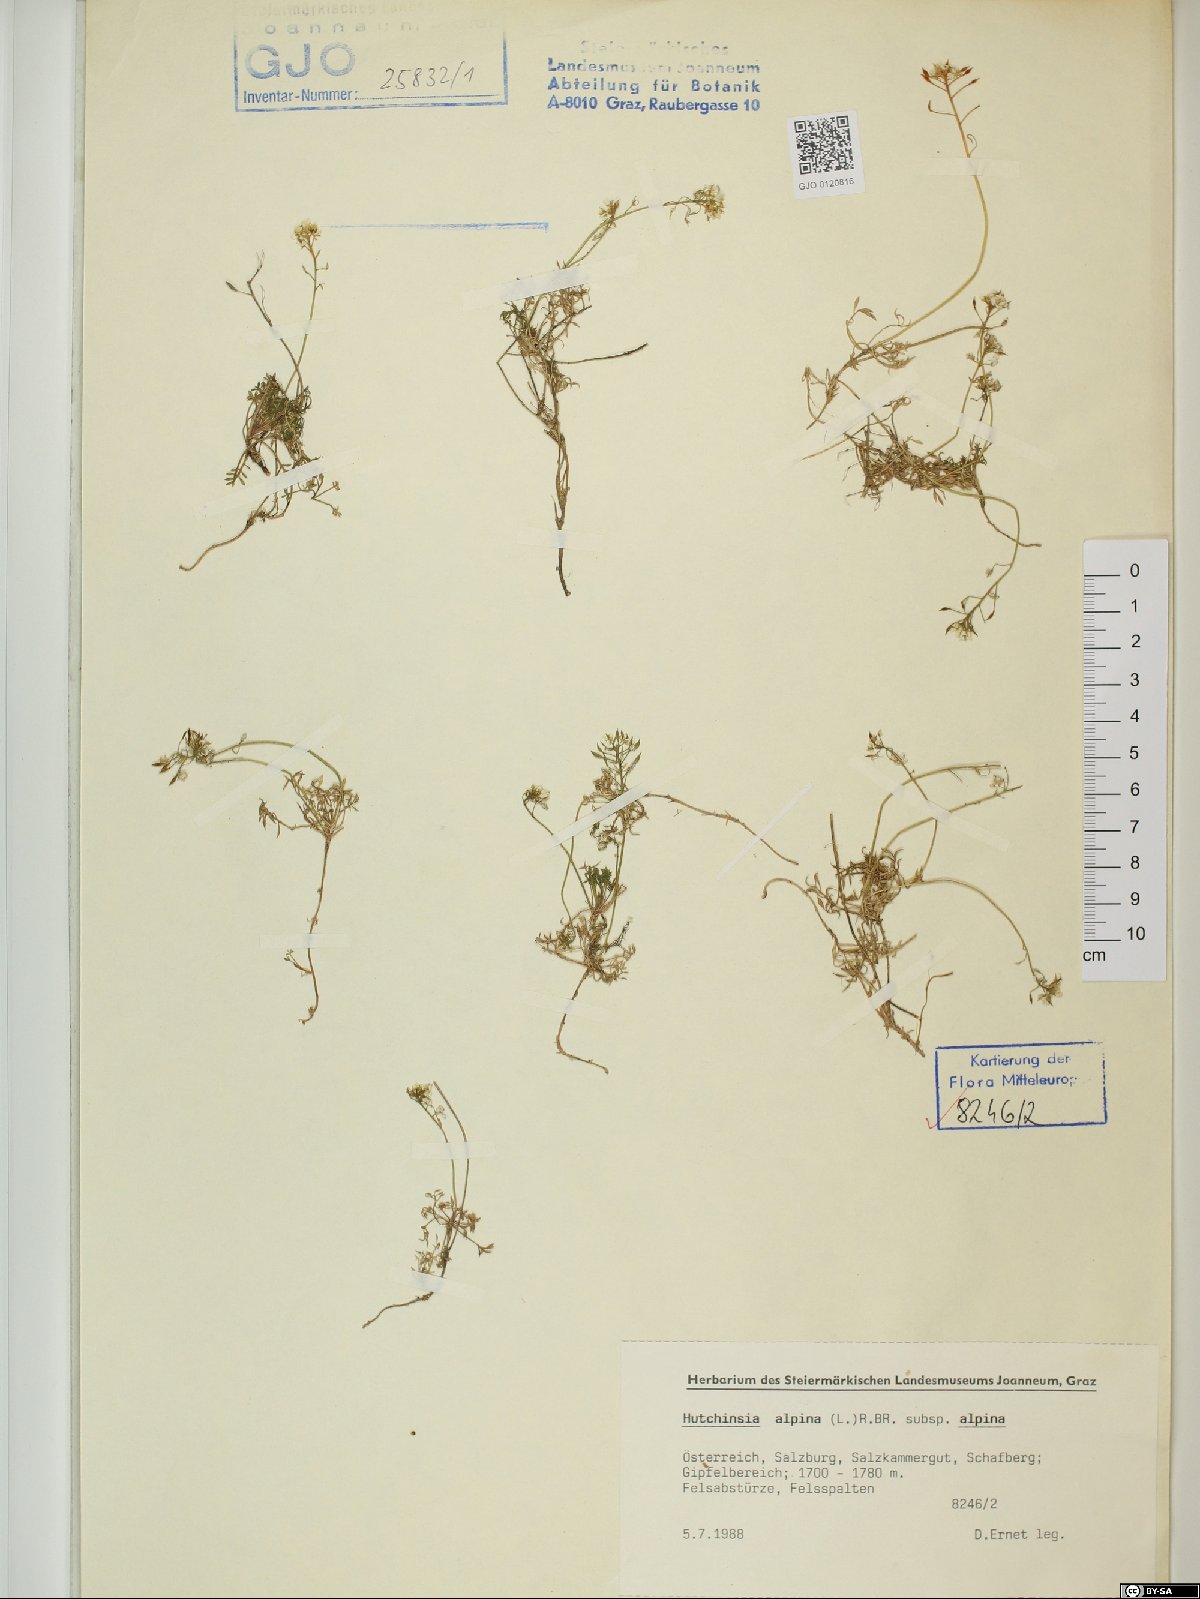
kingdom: Plantae
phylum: Tracheophyta
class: Magnoliopsida
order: Brassicales
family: Brassicaceae
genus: Hornungia
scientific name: Hornungia alpina
